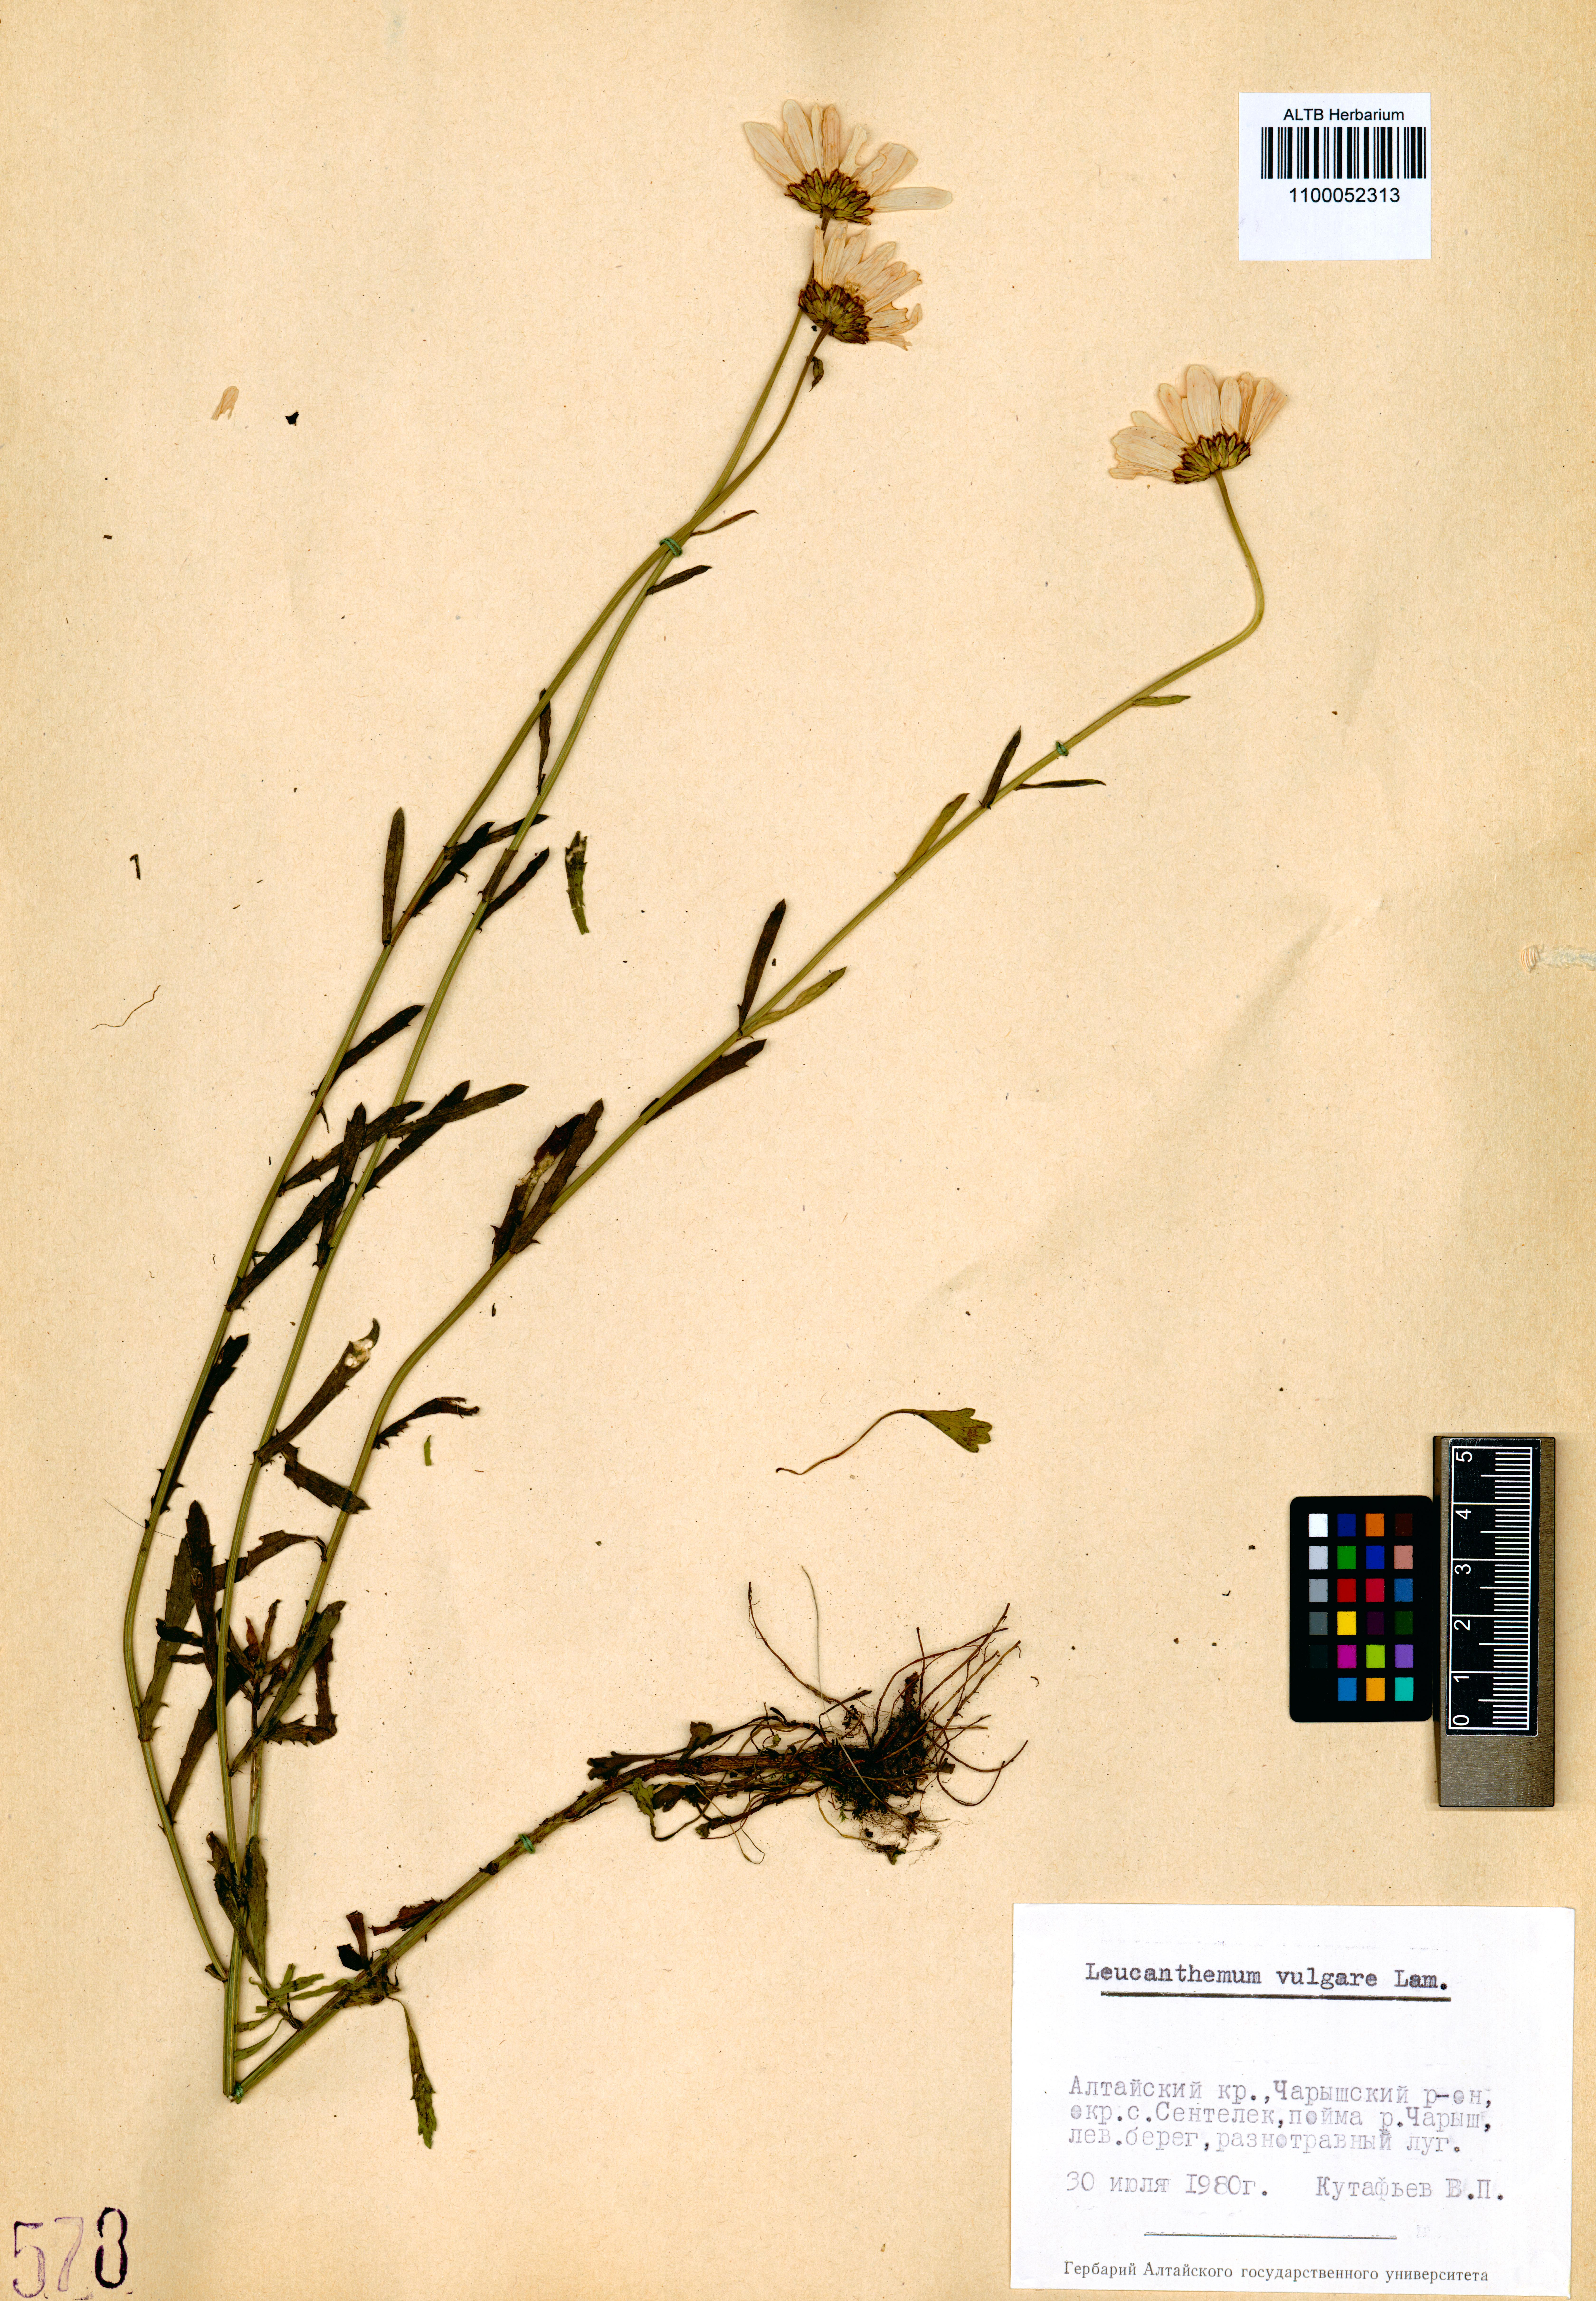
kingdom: Plantae
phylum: Tracheophyta
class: Magnoliopsida
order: Asterales
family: Asteraceae
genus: Leucanthemum
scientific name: Leucanthemum vulgare
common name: Oxeye daisy
